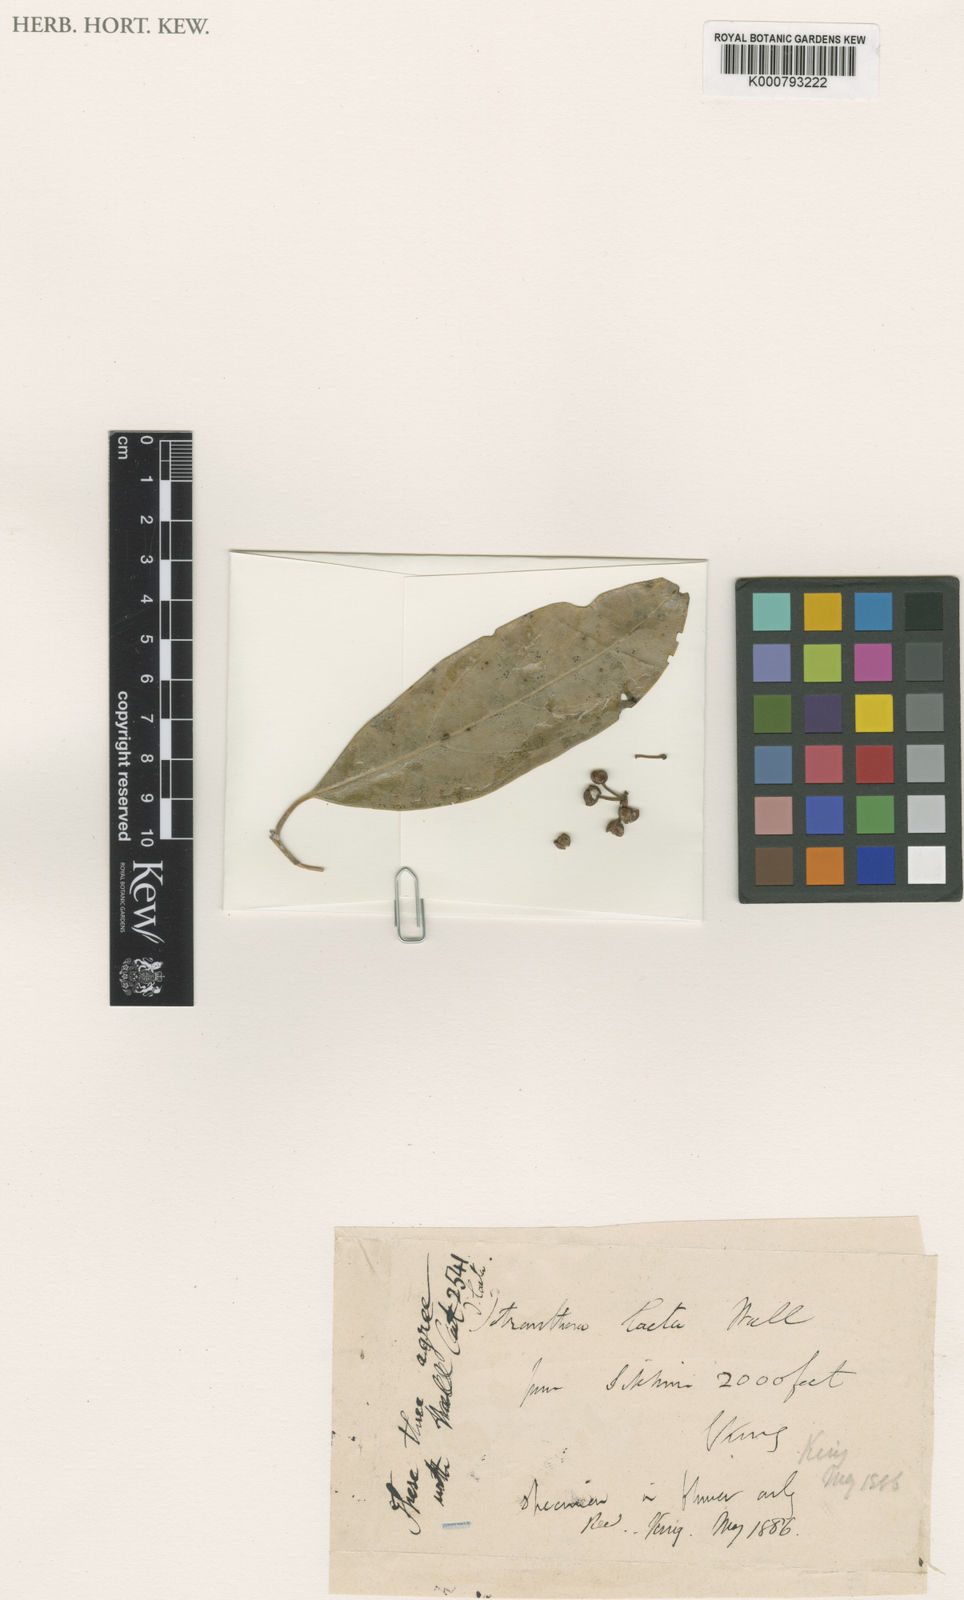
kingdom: Plantae
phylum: Tracheophyta
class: Magnoliopsida
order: Laurales
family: Lauraceae
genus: Litsea
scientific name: Litsea
